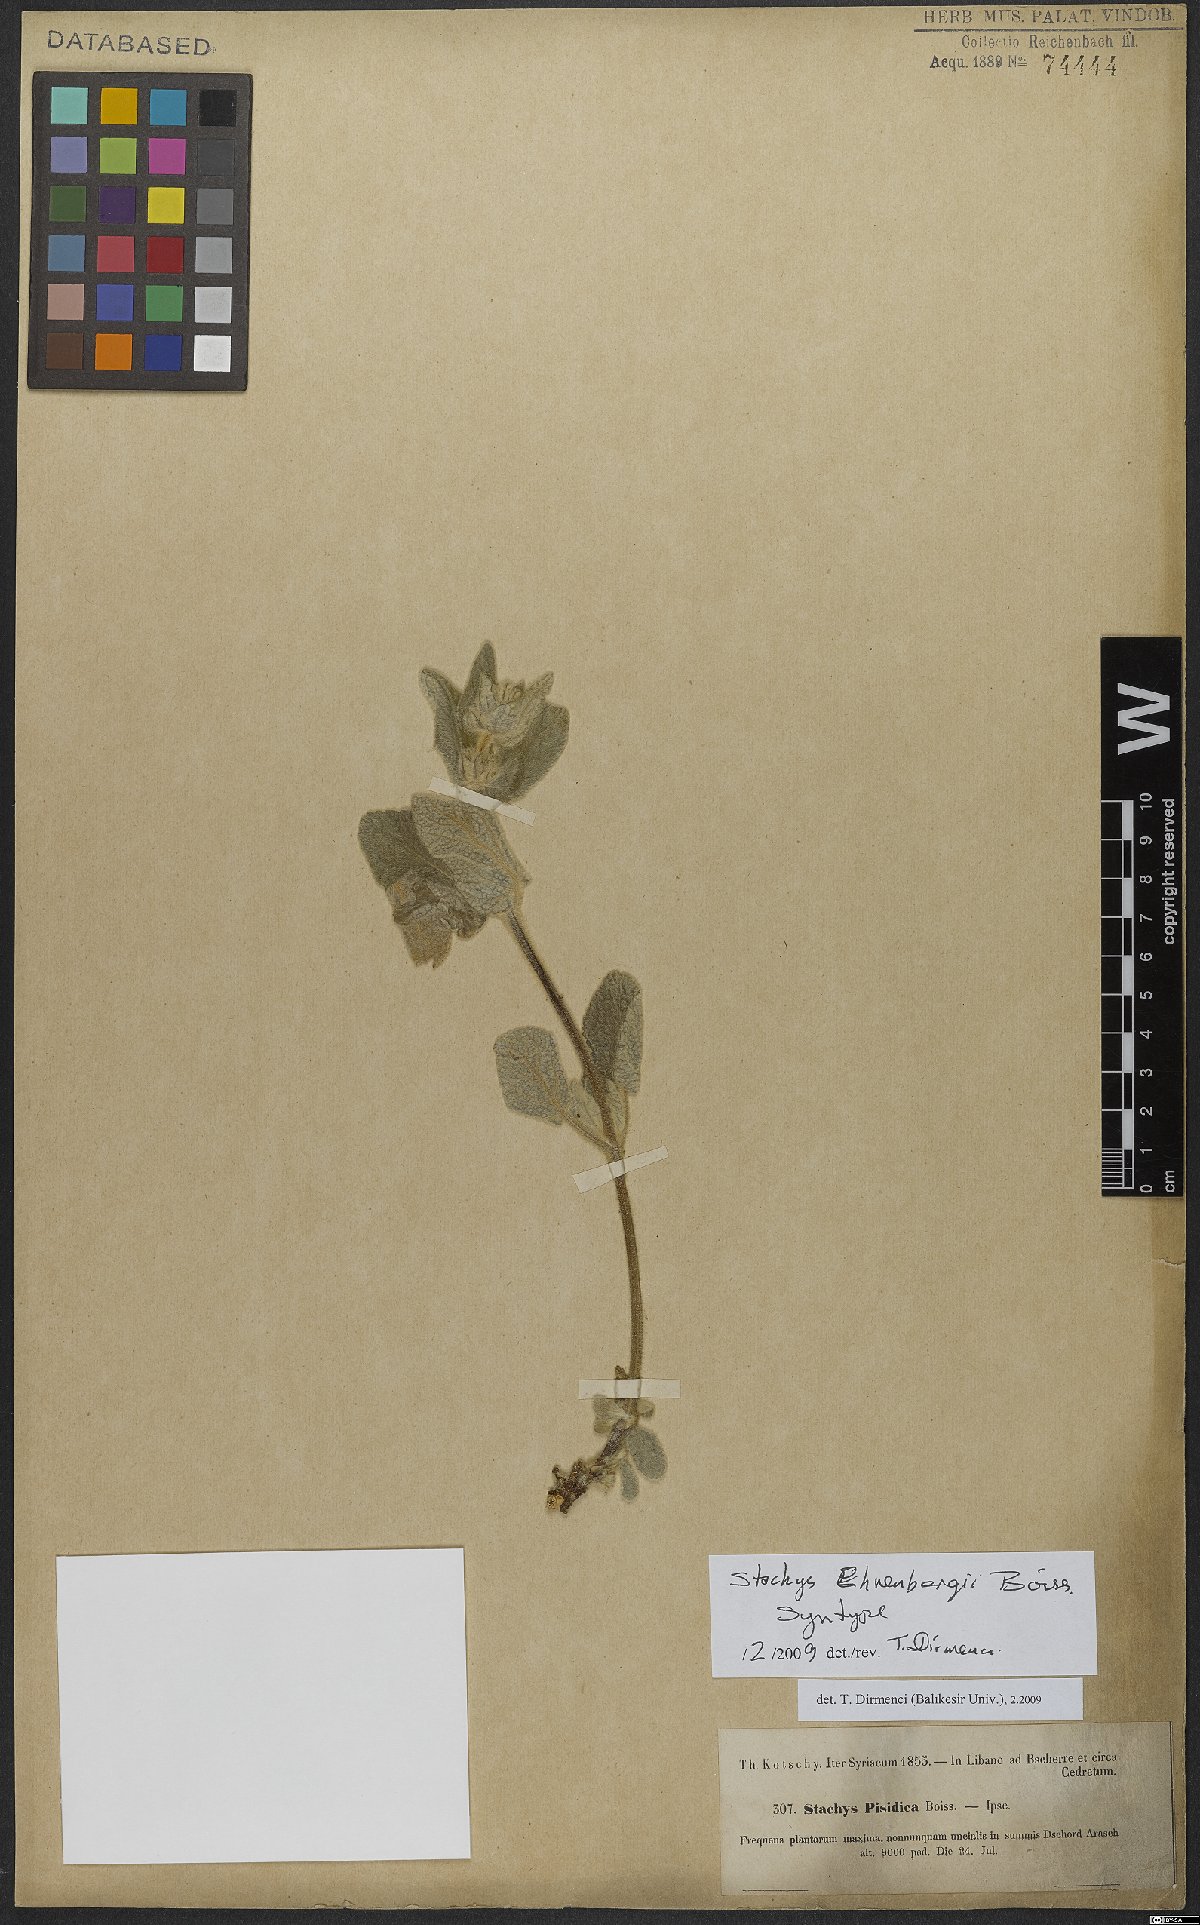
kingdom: Plantae
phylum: Tracheophyta
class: Magnoliopsida
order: Lamiales
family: Lamiaceae
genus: Stachys
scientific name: Stachys ehrenbergii
